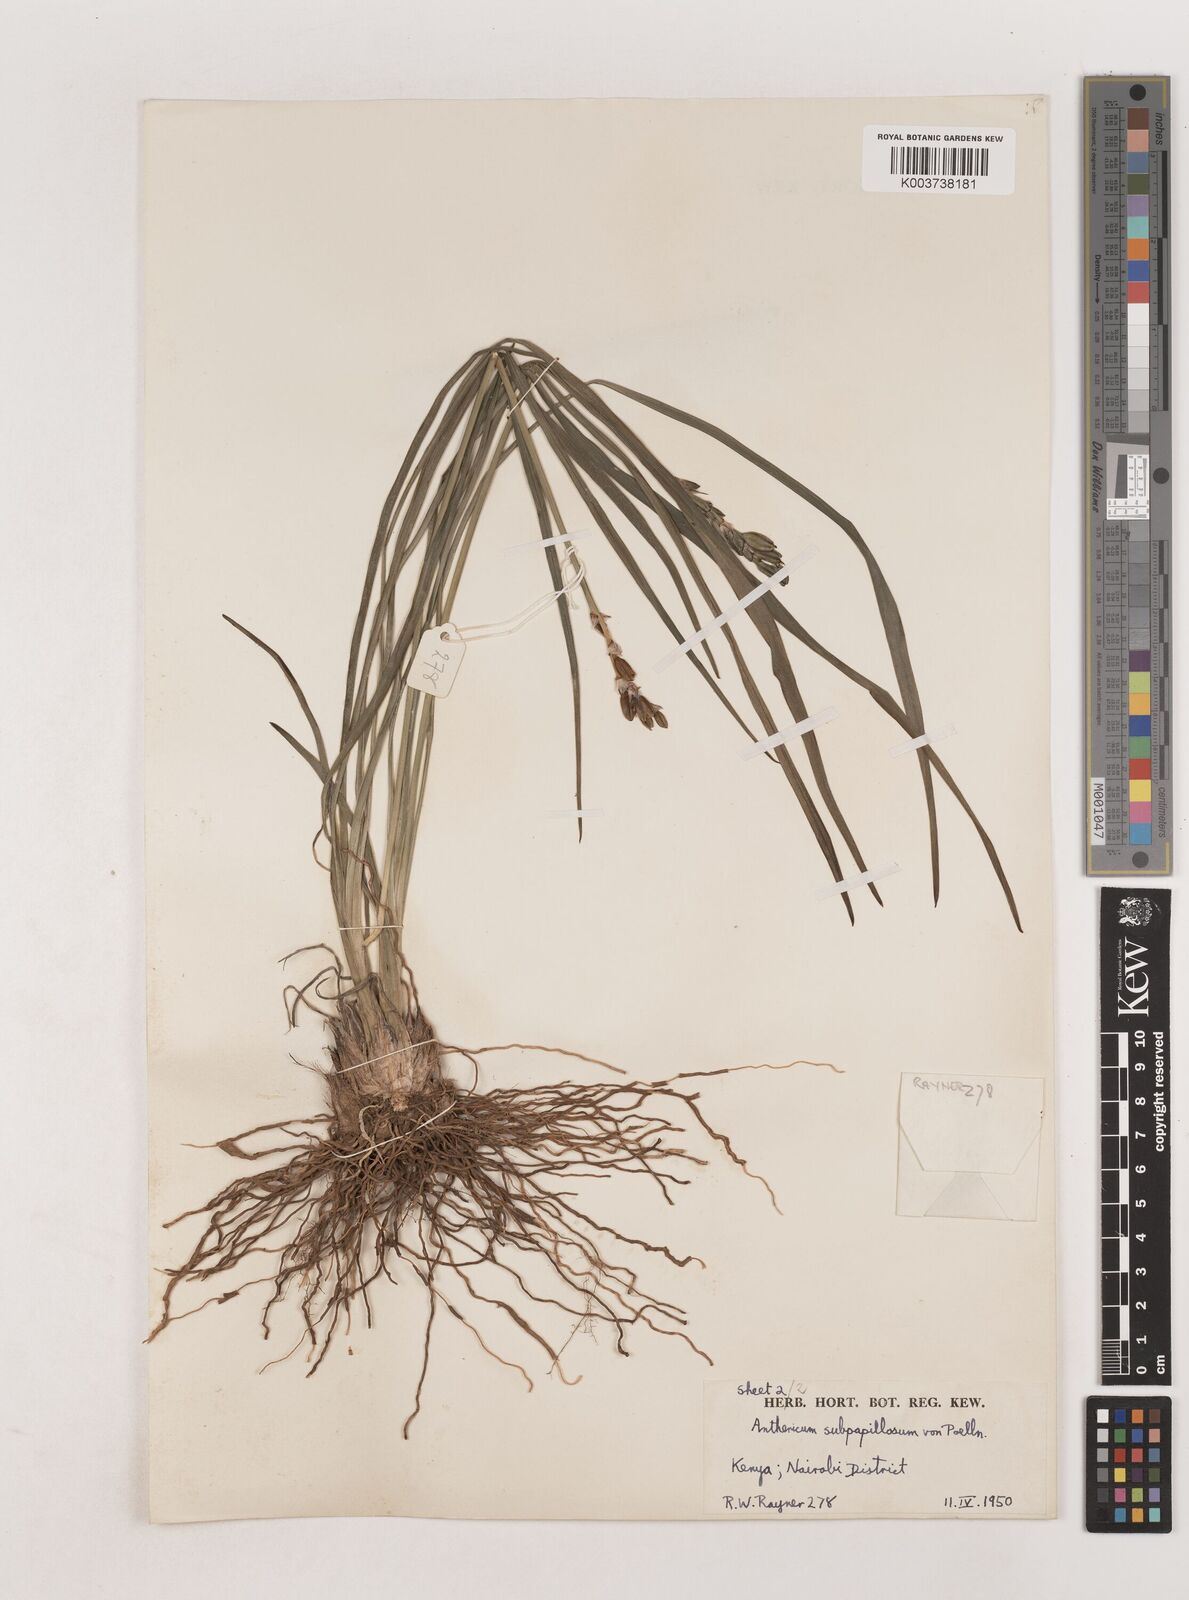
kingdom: Plantae
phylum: Tracheophyta
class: Liliopsida
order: Asparagales
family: Asparagaceae
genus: Chlorophytum
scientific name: Chlorophytum cameronii
